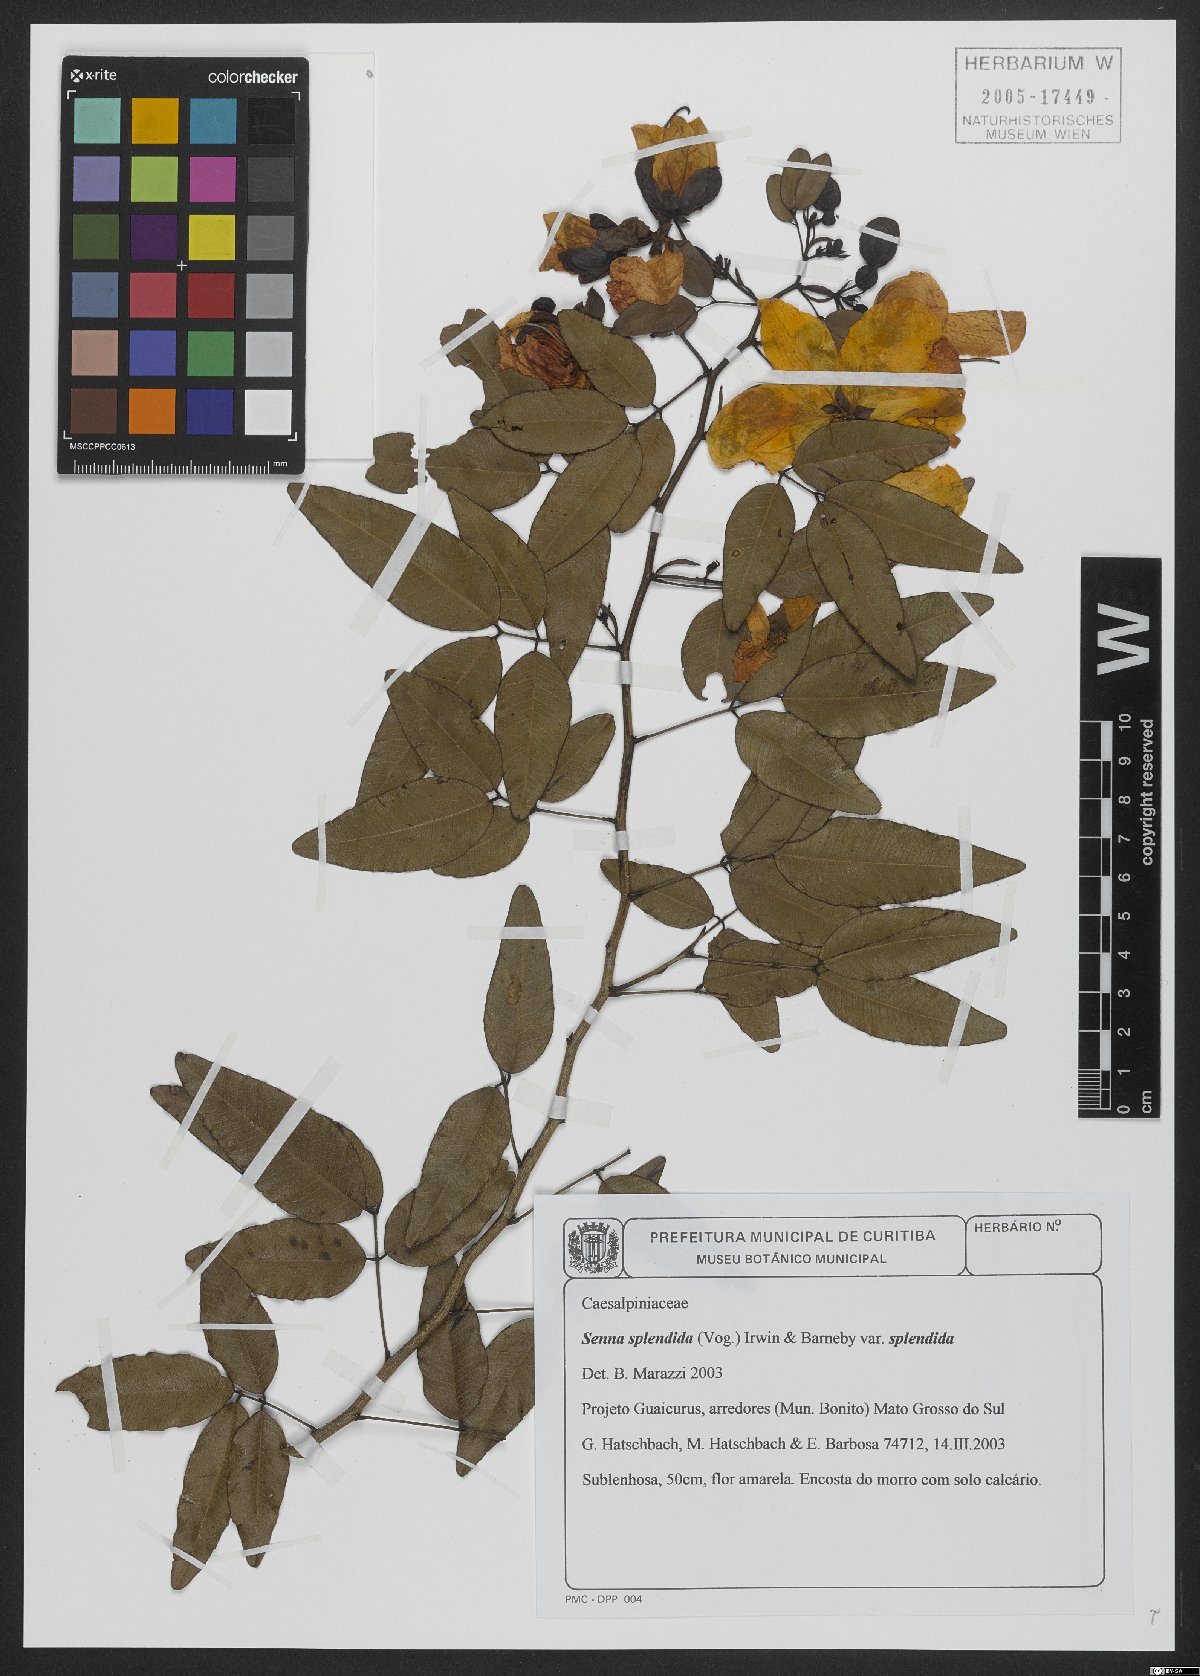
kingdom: Plantae
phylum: Tracheophyta
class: Magnoliopsida
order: Fabales
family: Fabaceae
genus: Senna
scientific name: Senna splendida
